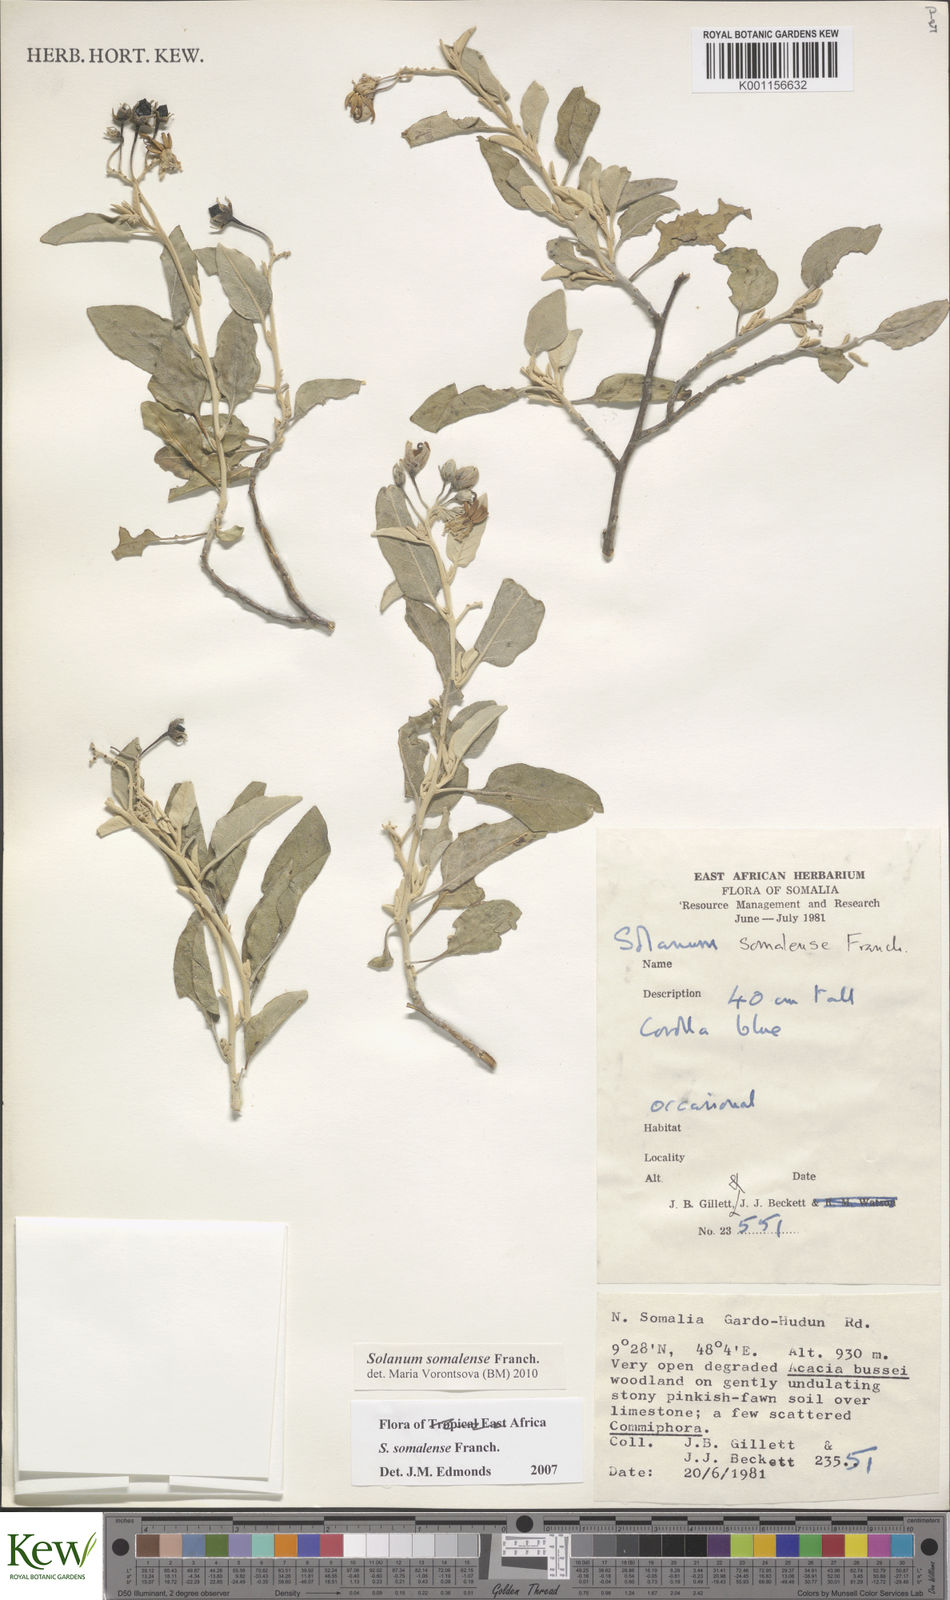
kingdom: Plantae
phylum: Tracheophyta
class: Magnoliopsida
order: Solanales
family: Solanaceae
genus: Solanum
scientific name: Solanum somalense
